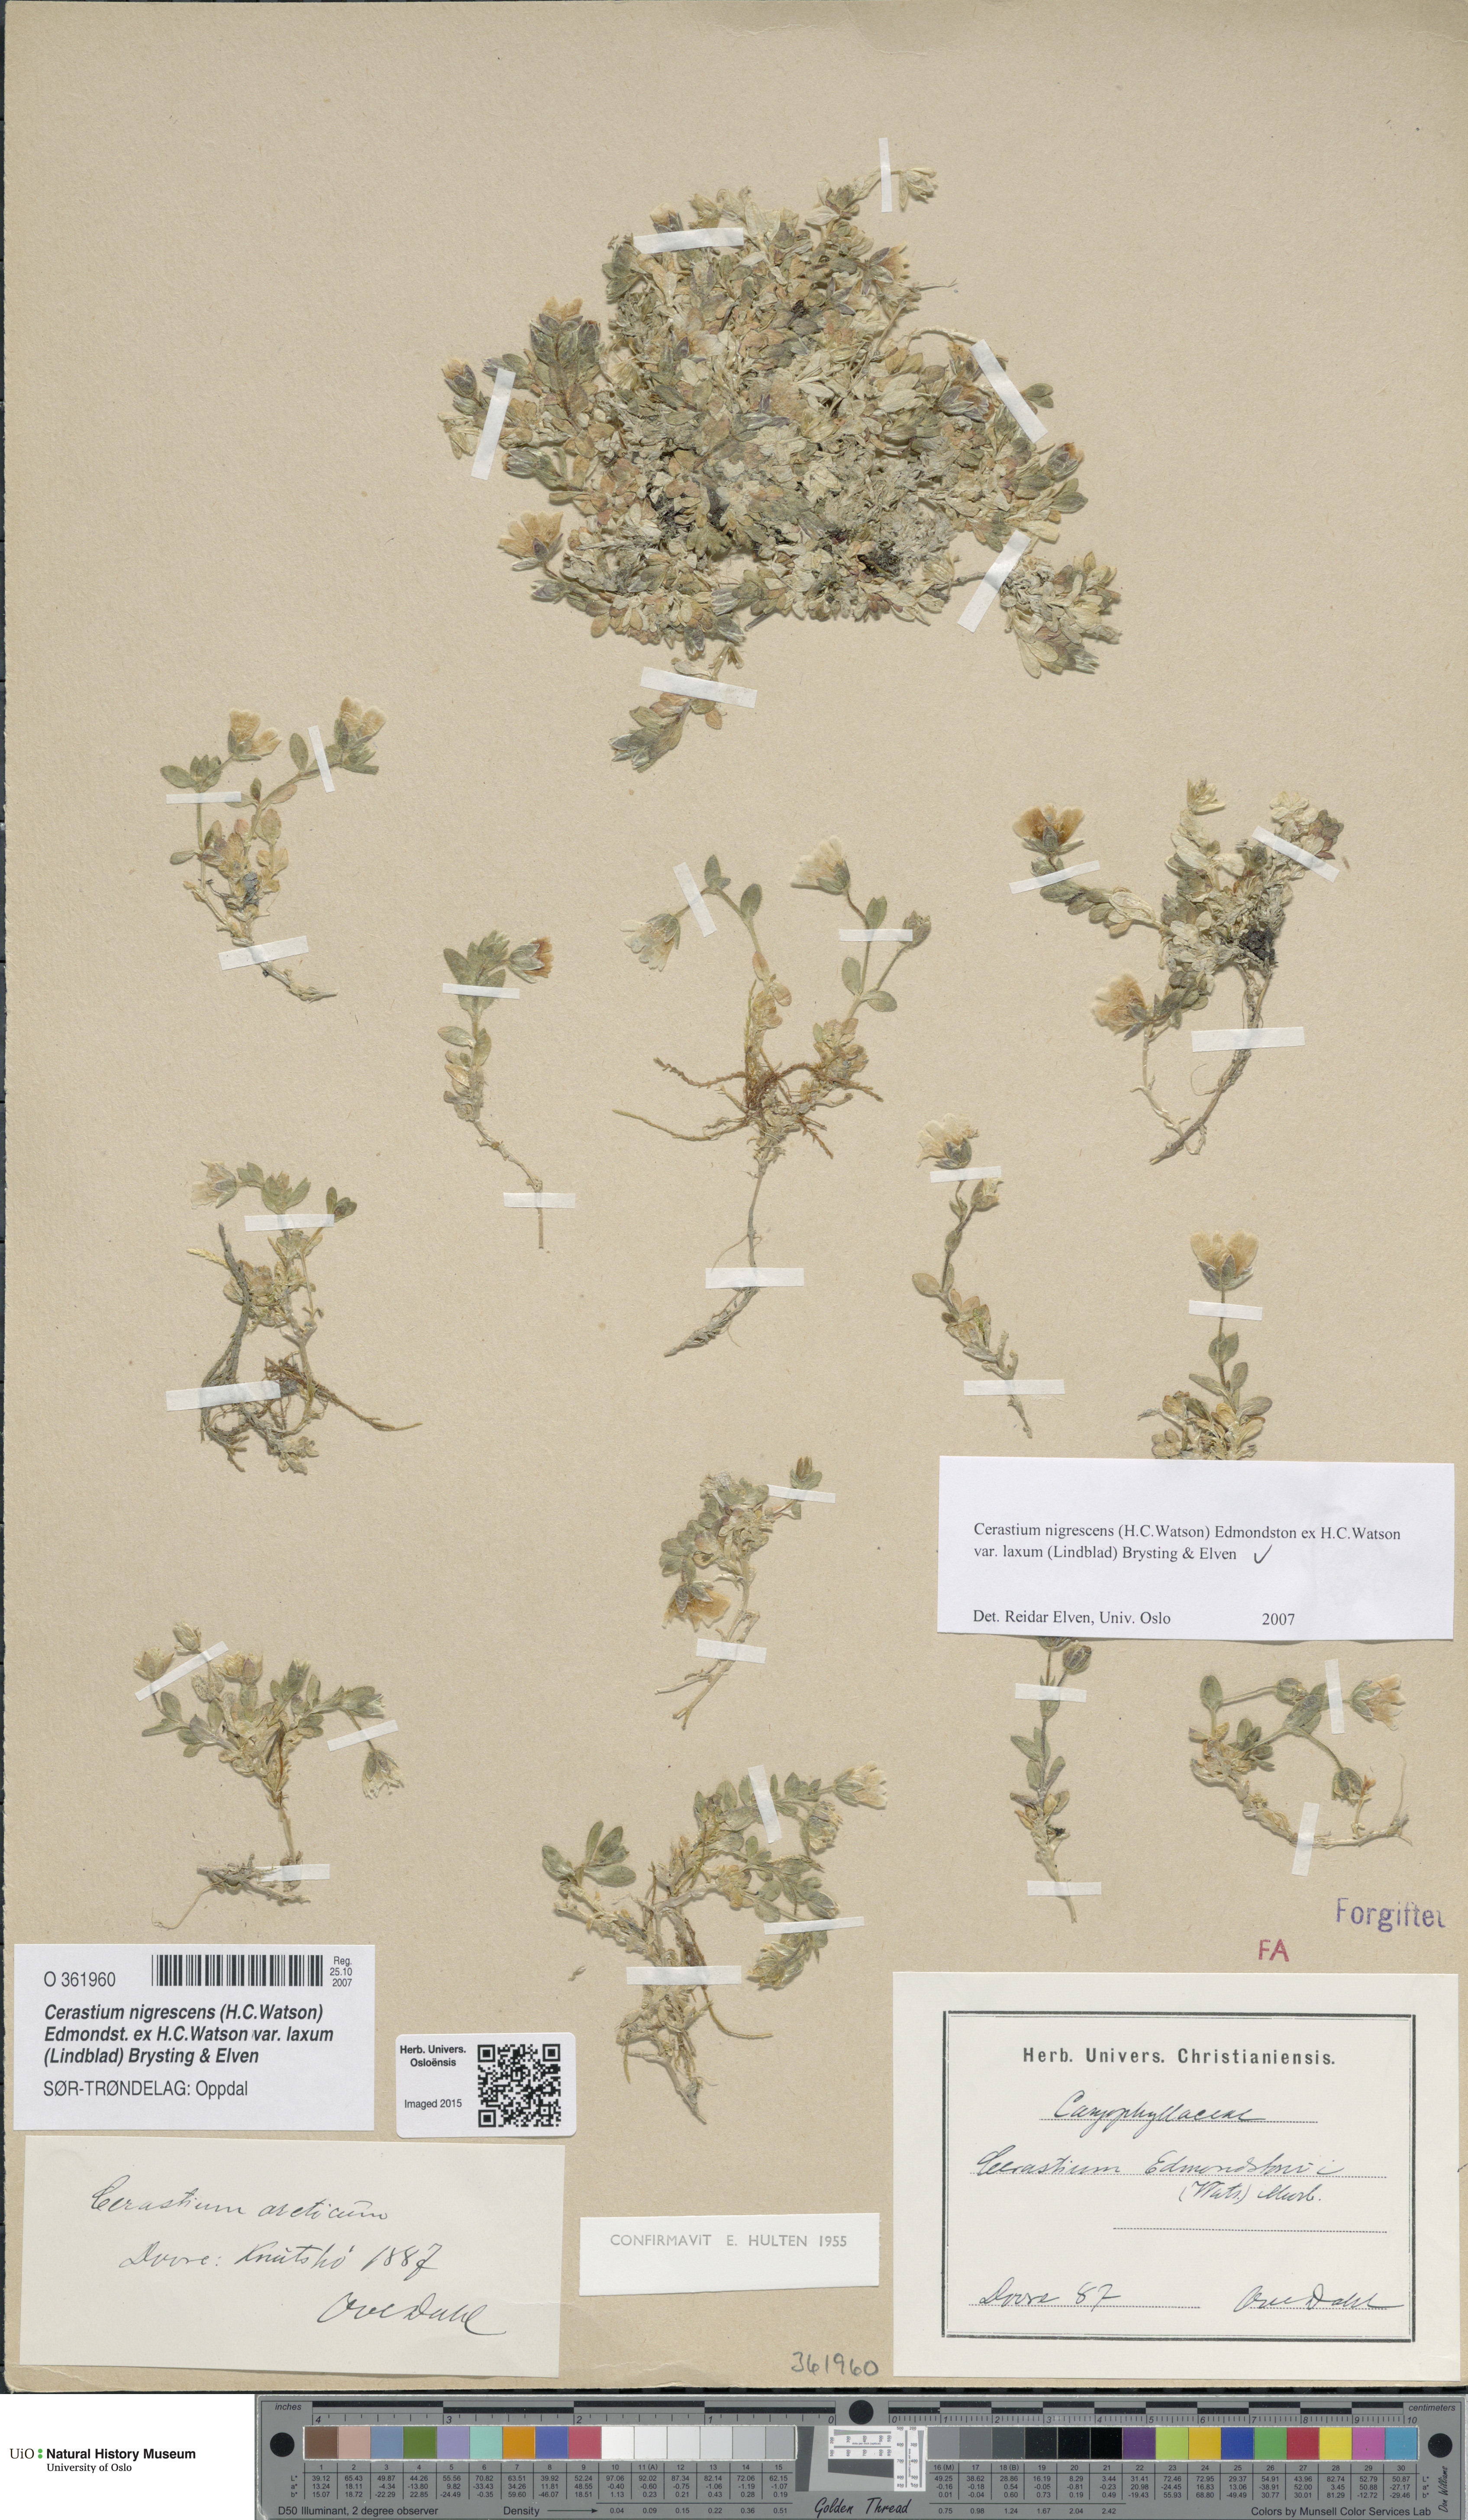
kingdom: Plantae
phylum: Tracheophyta
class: Magnoliopsida
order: Caryophyllales
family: Caryophyllaceae
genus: Cerastium
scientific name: Cerastium nigrescens
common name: Shetland mouse-ear
